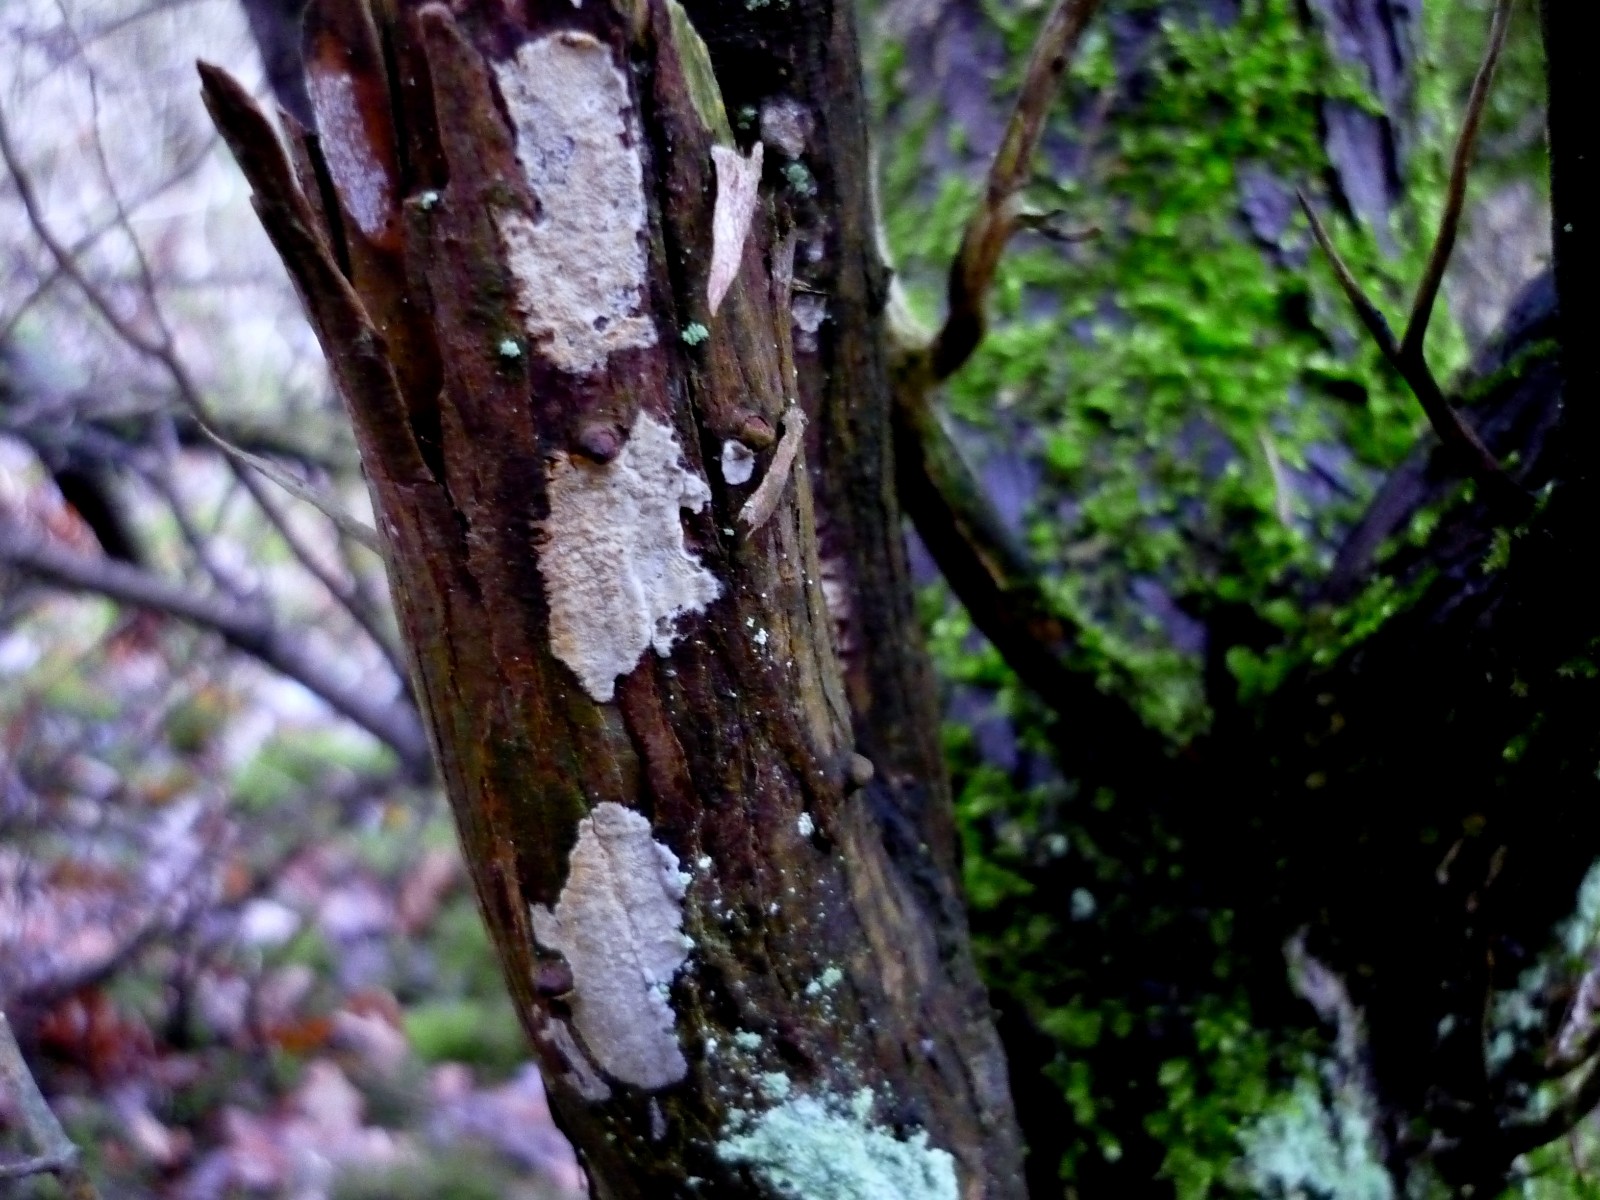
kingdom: Fungi
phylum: Basidiomycota
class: Agaricomycetes
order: Russulales
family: Echinodontiaceae
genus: Amylostereum
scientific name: Amylostereum laevigatum
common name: ene-lædersvamp
